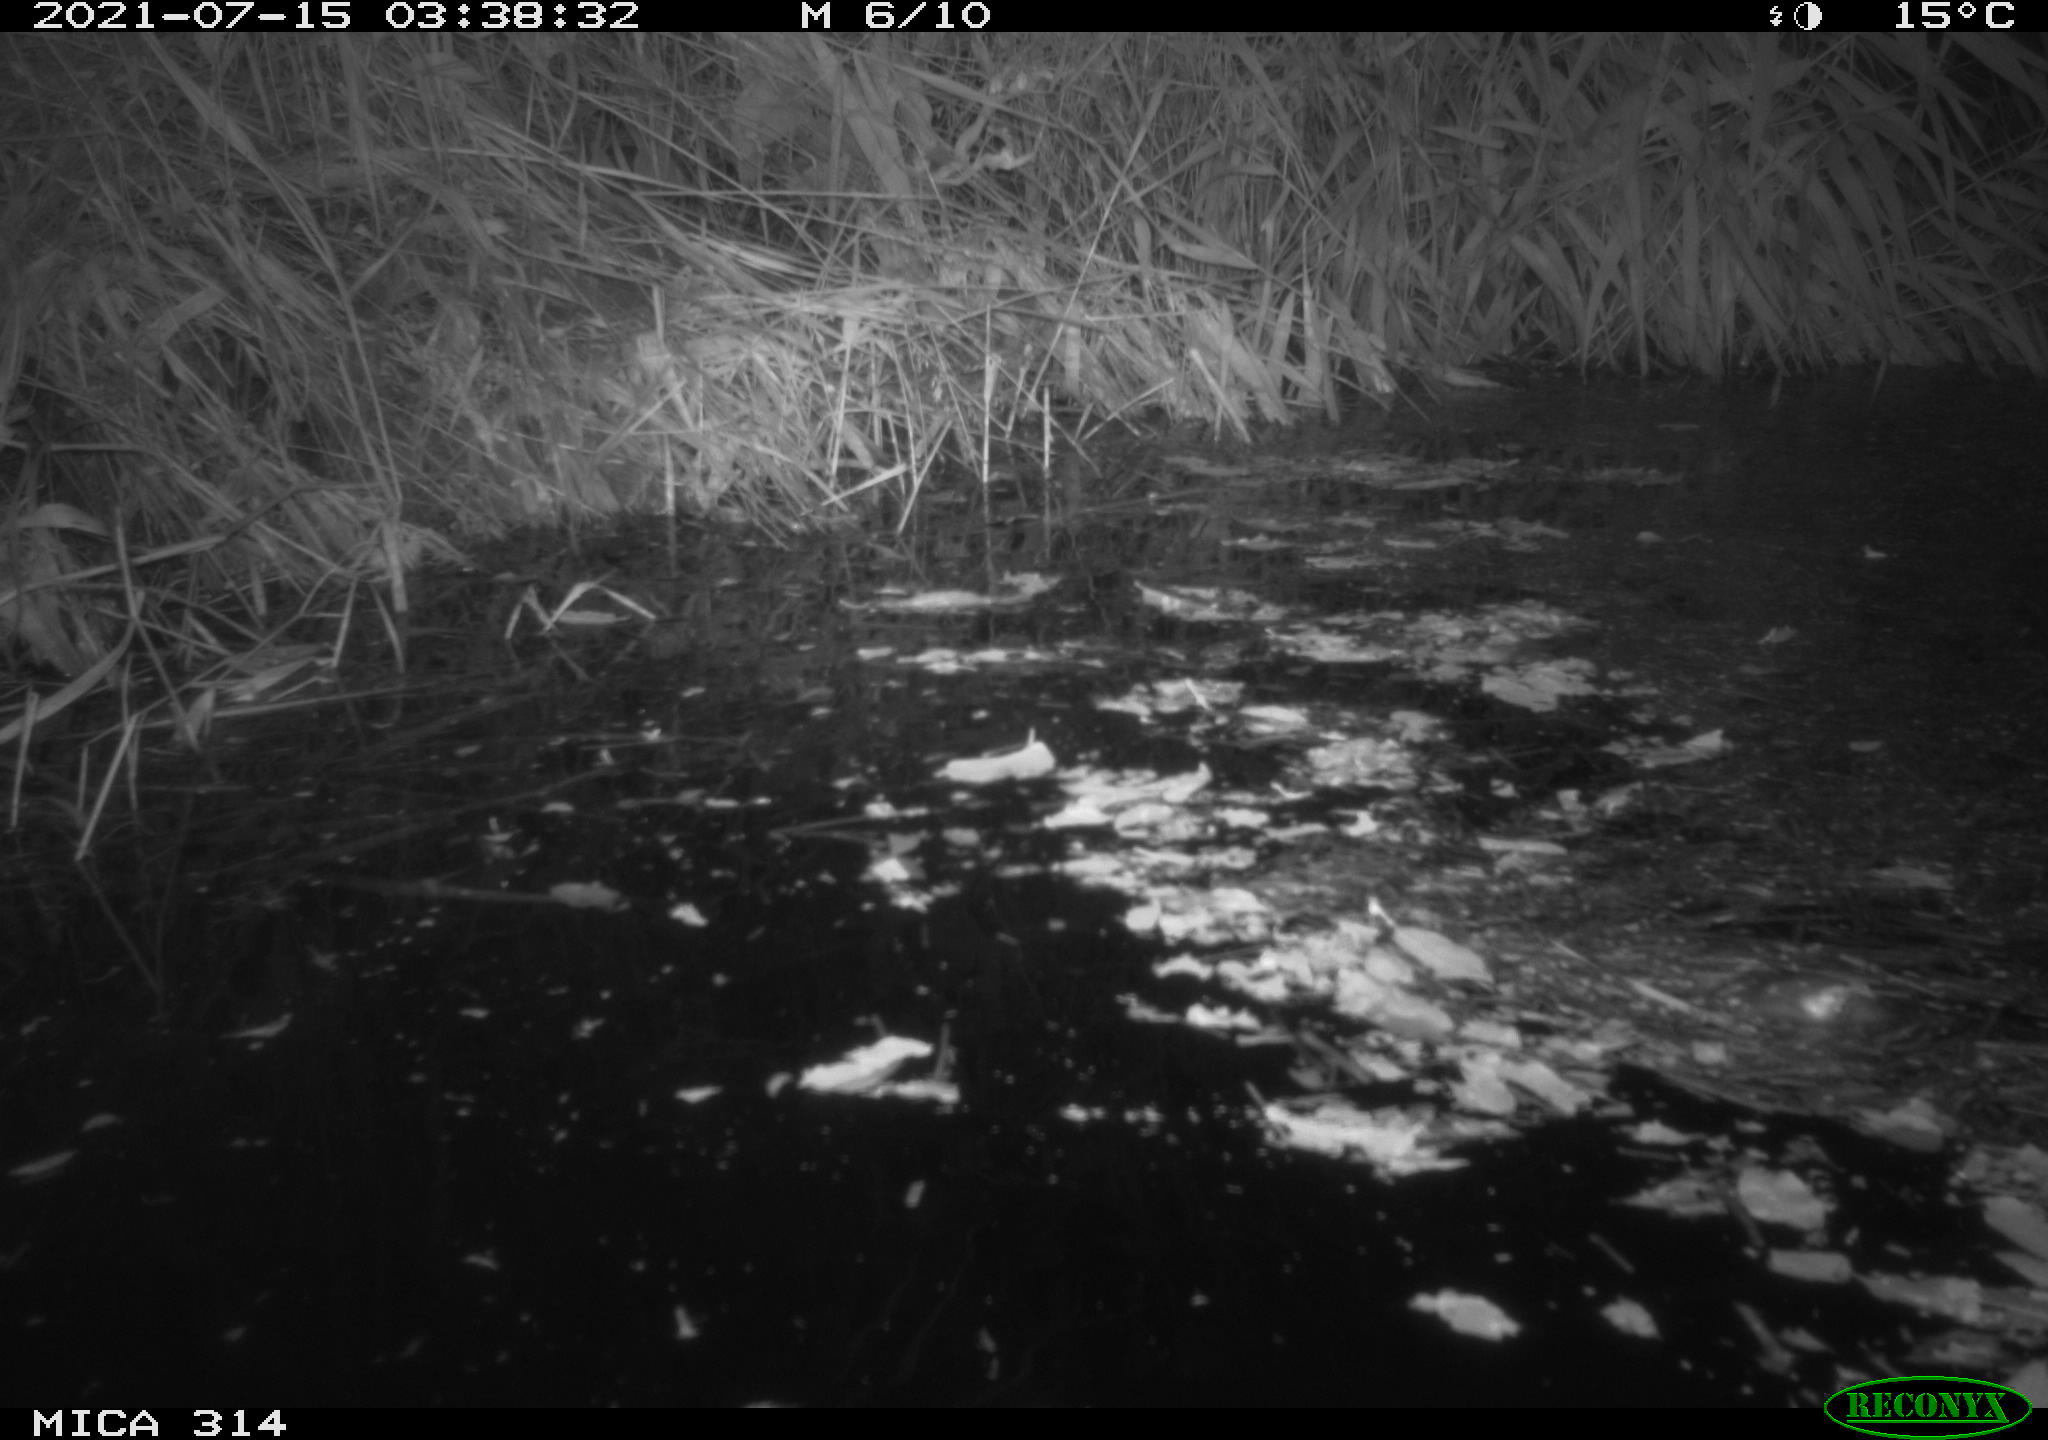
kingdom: Animalia
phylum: Chordata
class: Mammalia
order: Rodentia
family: Muridae
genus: Rattus
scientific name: Rattus norvegicus
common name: Brown rat
